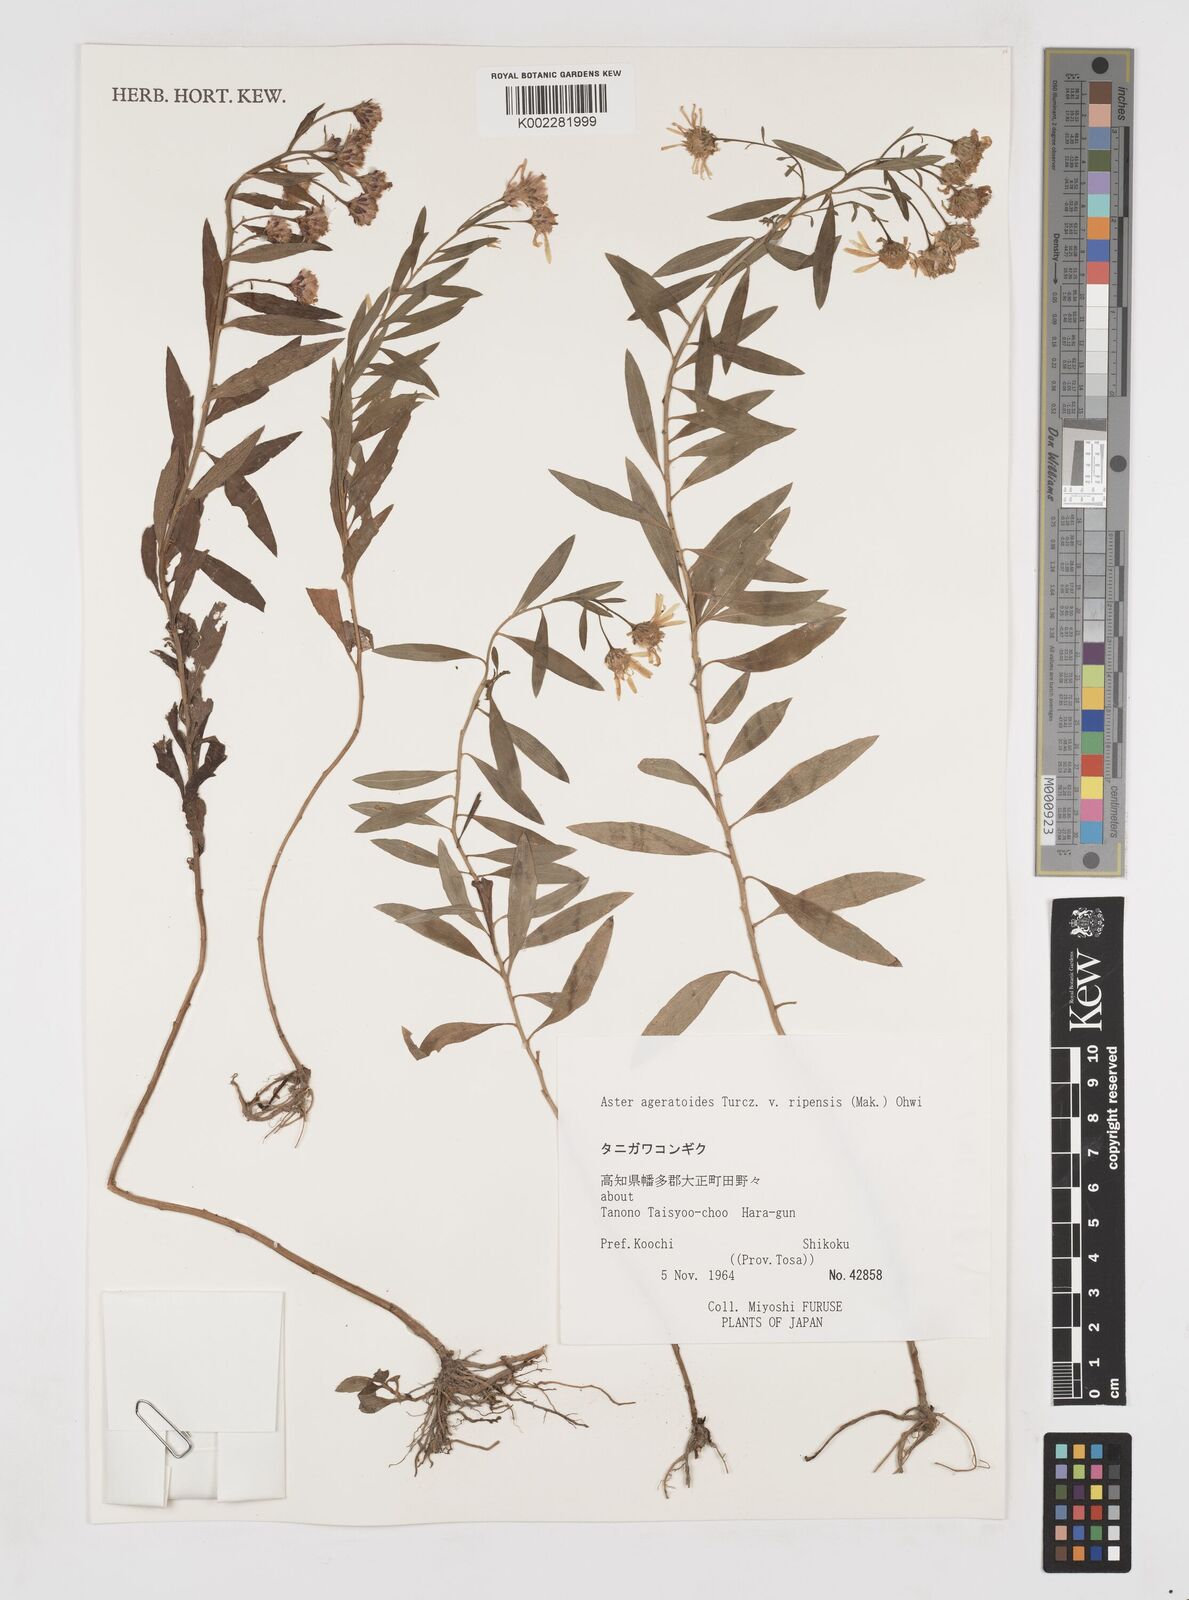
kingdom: Plantae
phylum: Tracheophyta
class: Magnoliopsida
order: Asterales
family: Asteraceae
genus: Aster
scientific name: Aster trinervius
